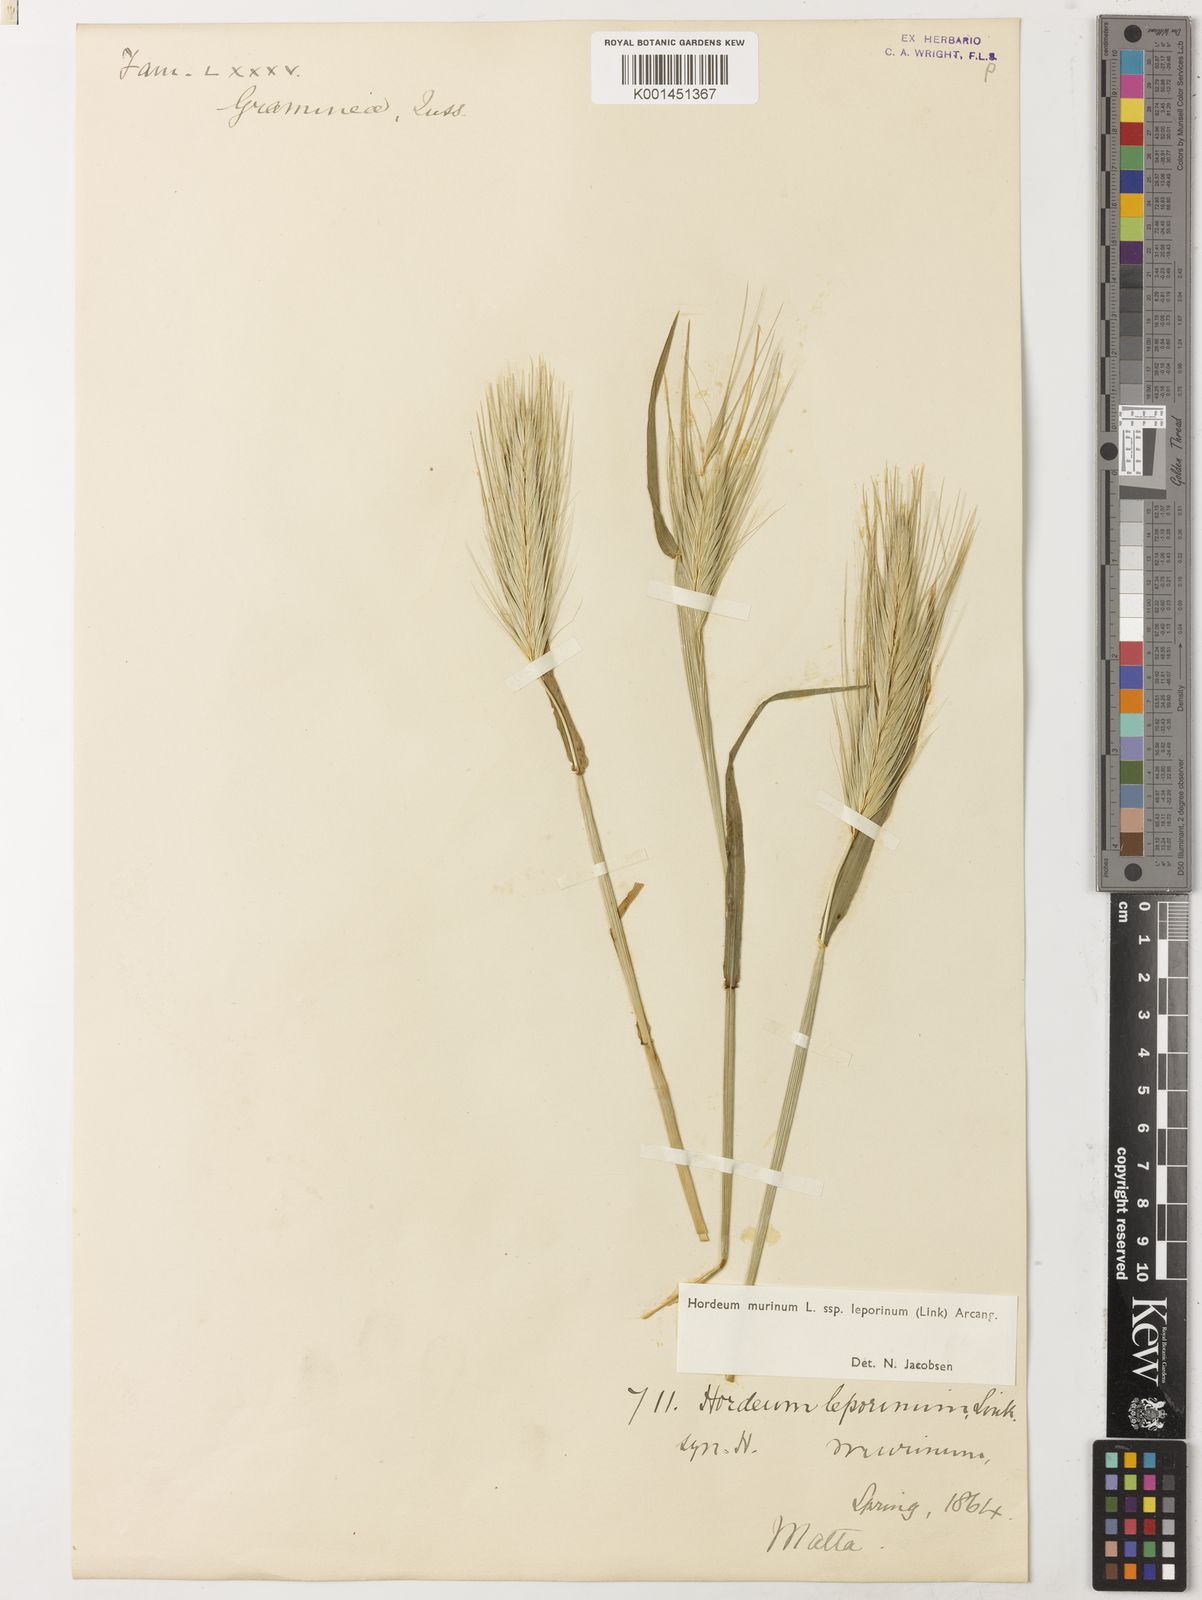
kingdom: Plantae
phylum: Tracheophyta
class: Liliopsida
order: Poales
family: Poaceae
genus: Hordeum
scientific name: Hordeum murinum
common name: Wall barley
